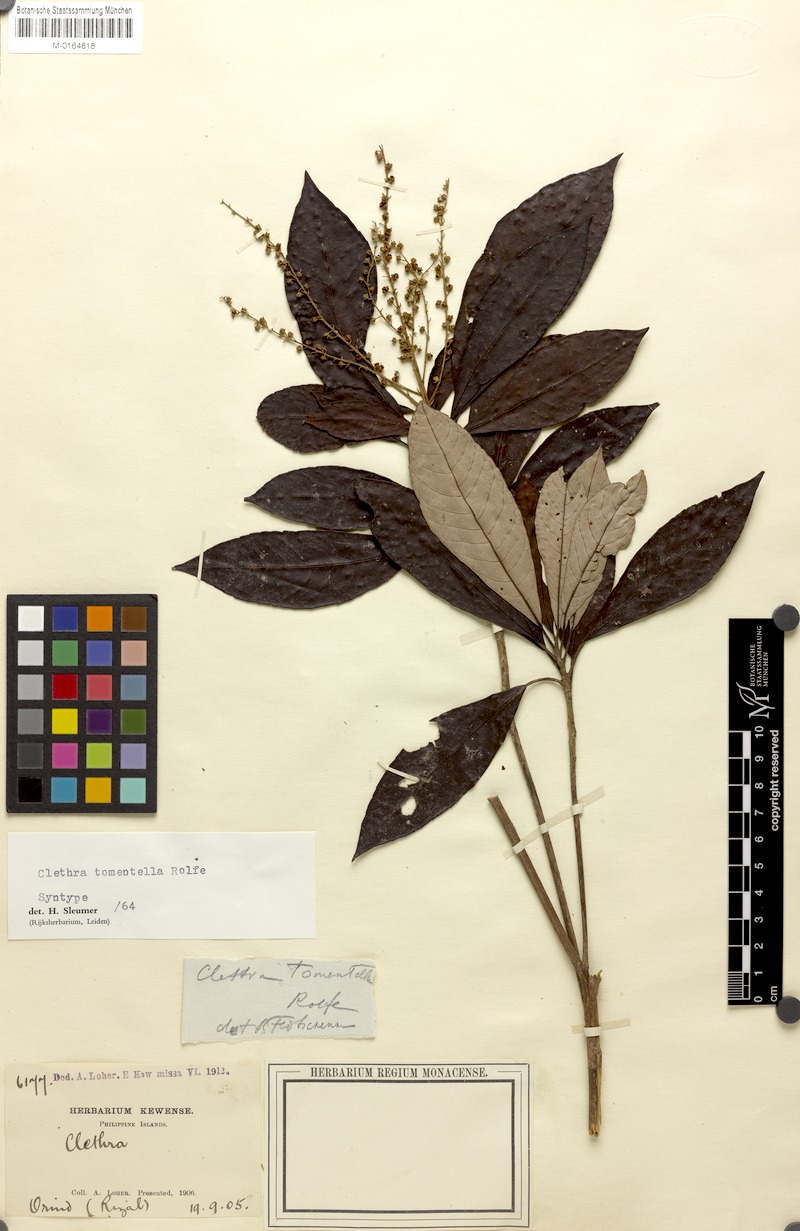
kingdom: Plantae
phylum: Tracheophyta
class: Magnoliopsida
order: Ericales
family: Clethraceae
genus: Clethra
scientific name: Clethra tomentella
